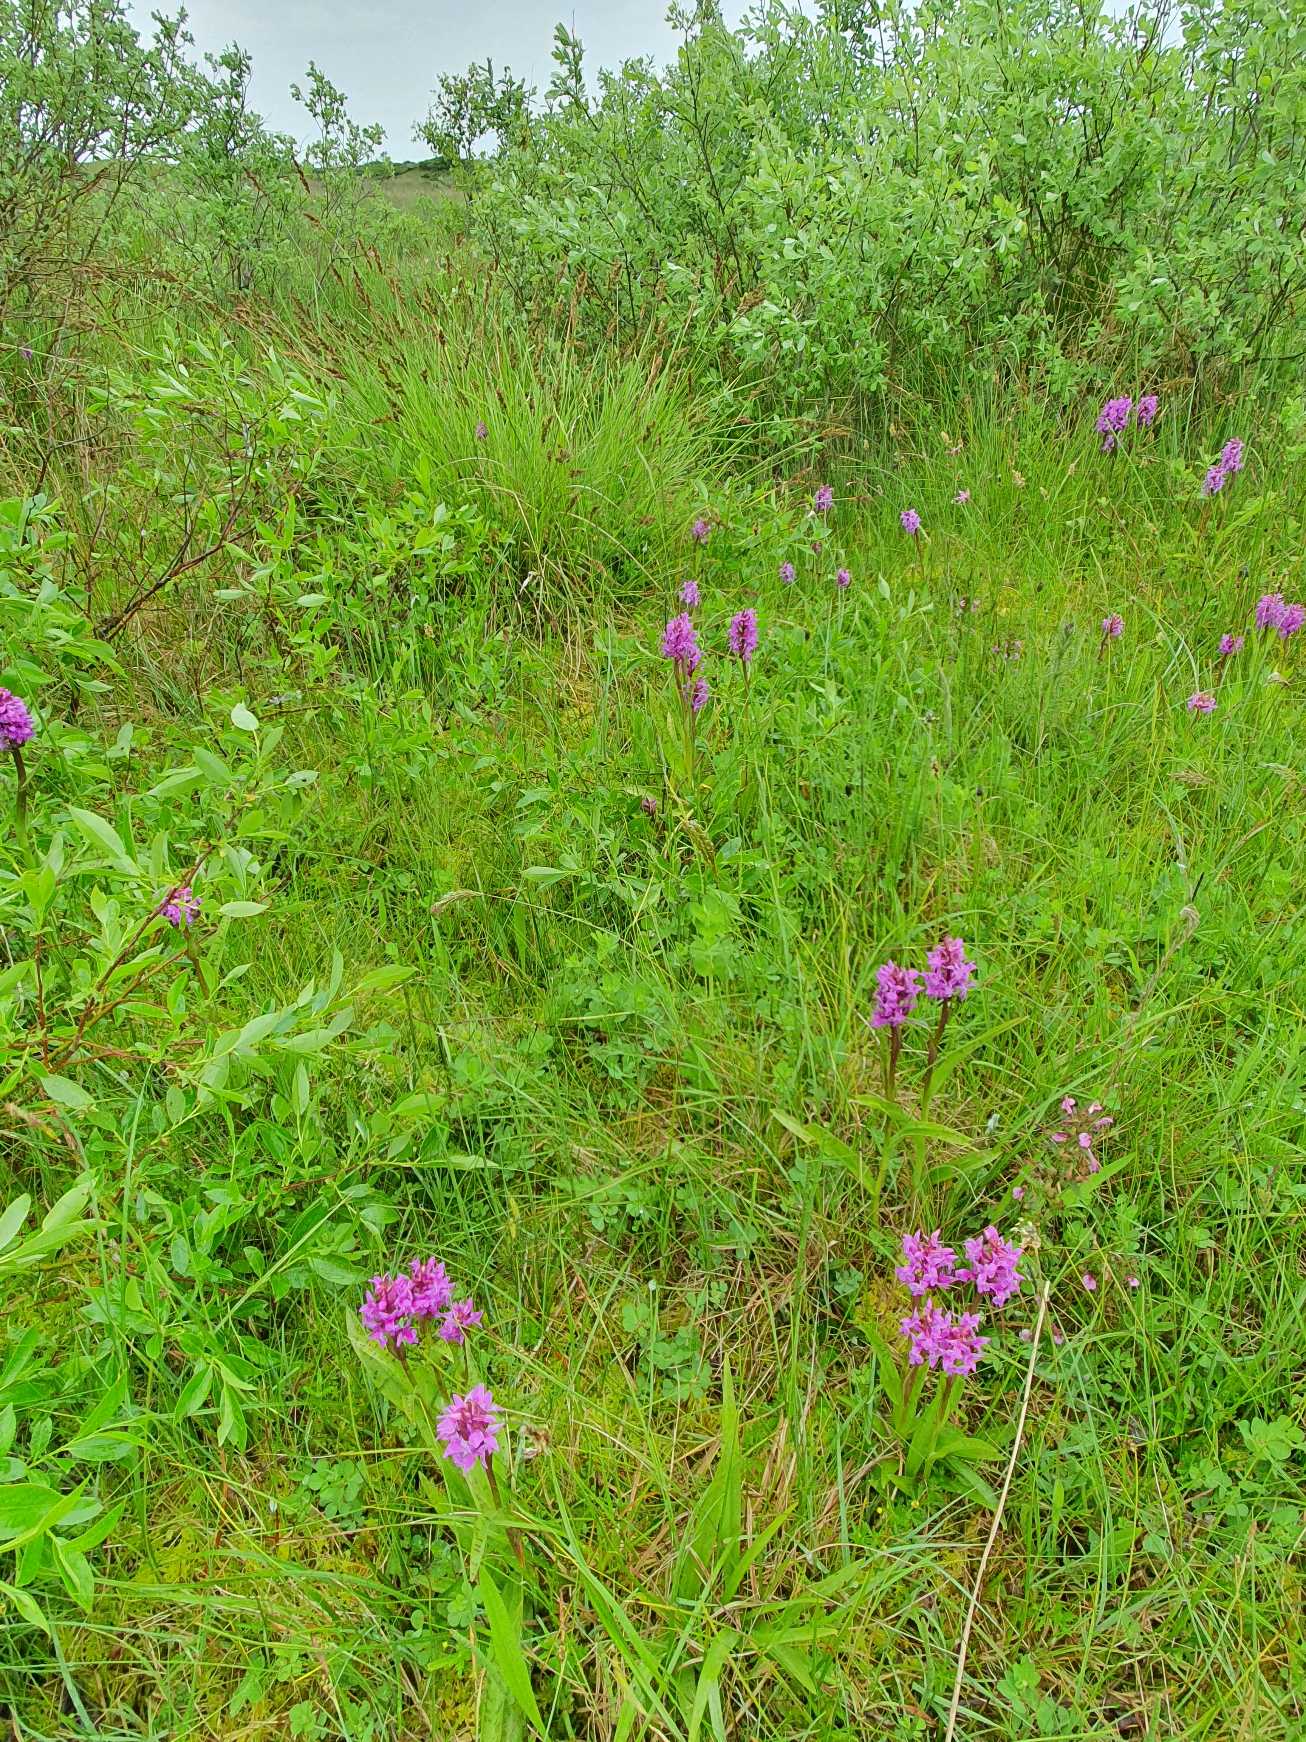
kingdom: Plantae
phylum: Tracheophyta
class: Liliopsida
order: Asparagales
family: Orchidaceae
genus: Dactylorhiza
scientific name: Dactylorhiza majalis
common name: Maj-gøgeurt
